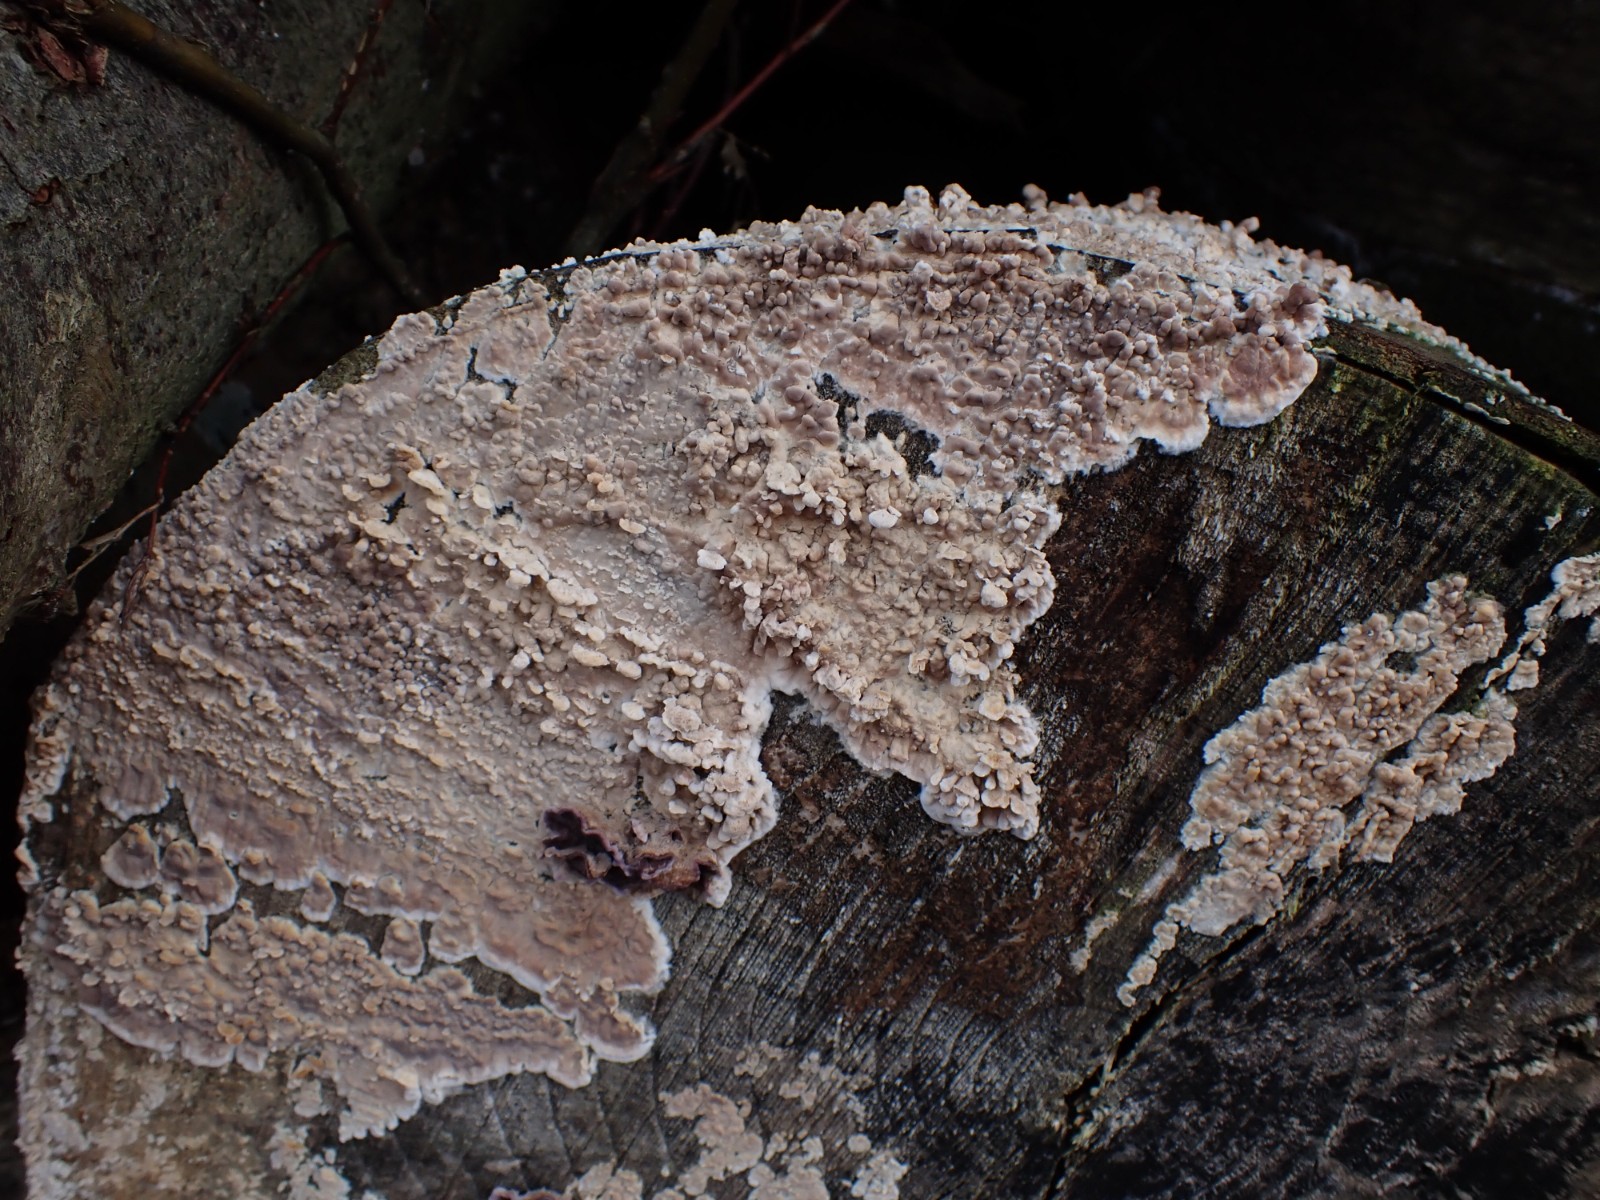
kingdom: Fungi
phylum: Basidiomycota
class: Agaricomycetes
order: Agaricales
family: Physalacriaceae
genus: Cylindrobasidium
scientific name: Cylindrobasidium evolvens
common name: sprækkehinde
